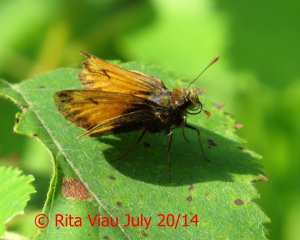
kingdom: Animalia
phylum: Arthropoda
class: Insecta
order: Lepidoptera
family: Hesperiidae
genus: Lon
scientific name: Lon hobomok
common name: Hobomok Skipper
